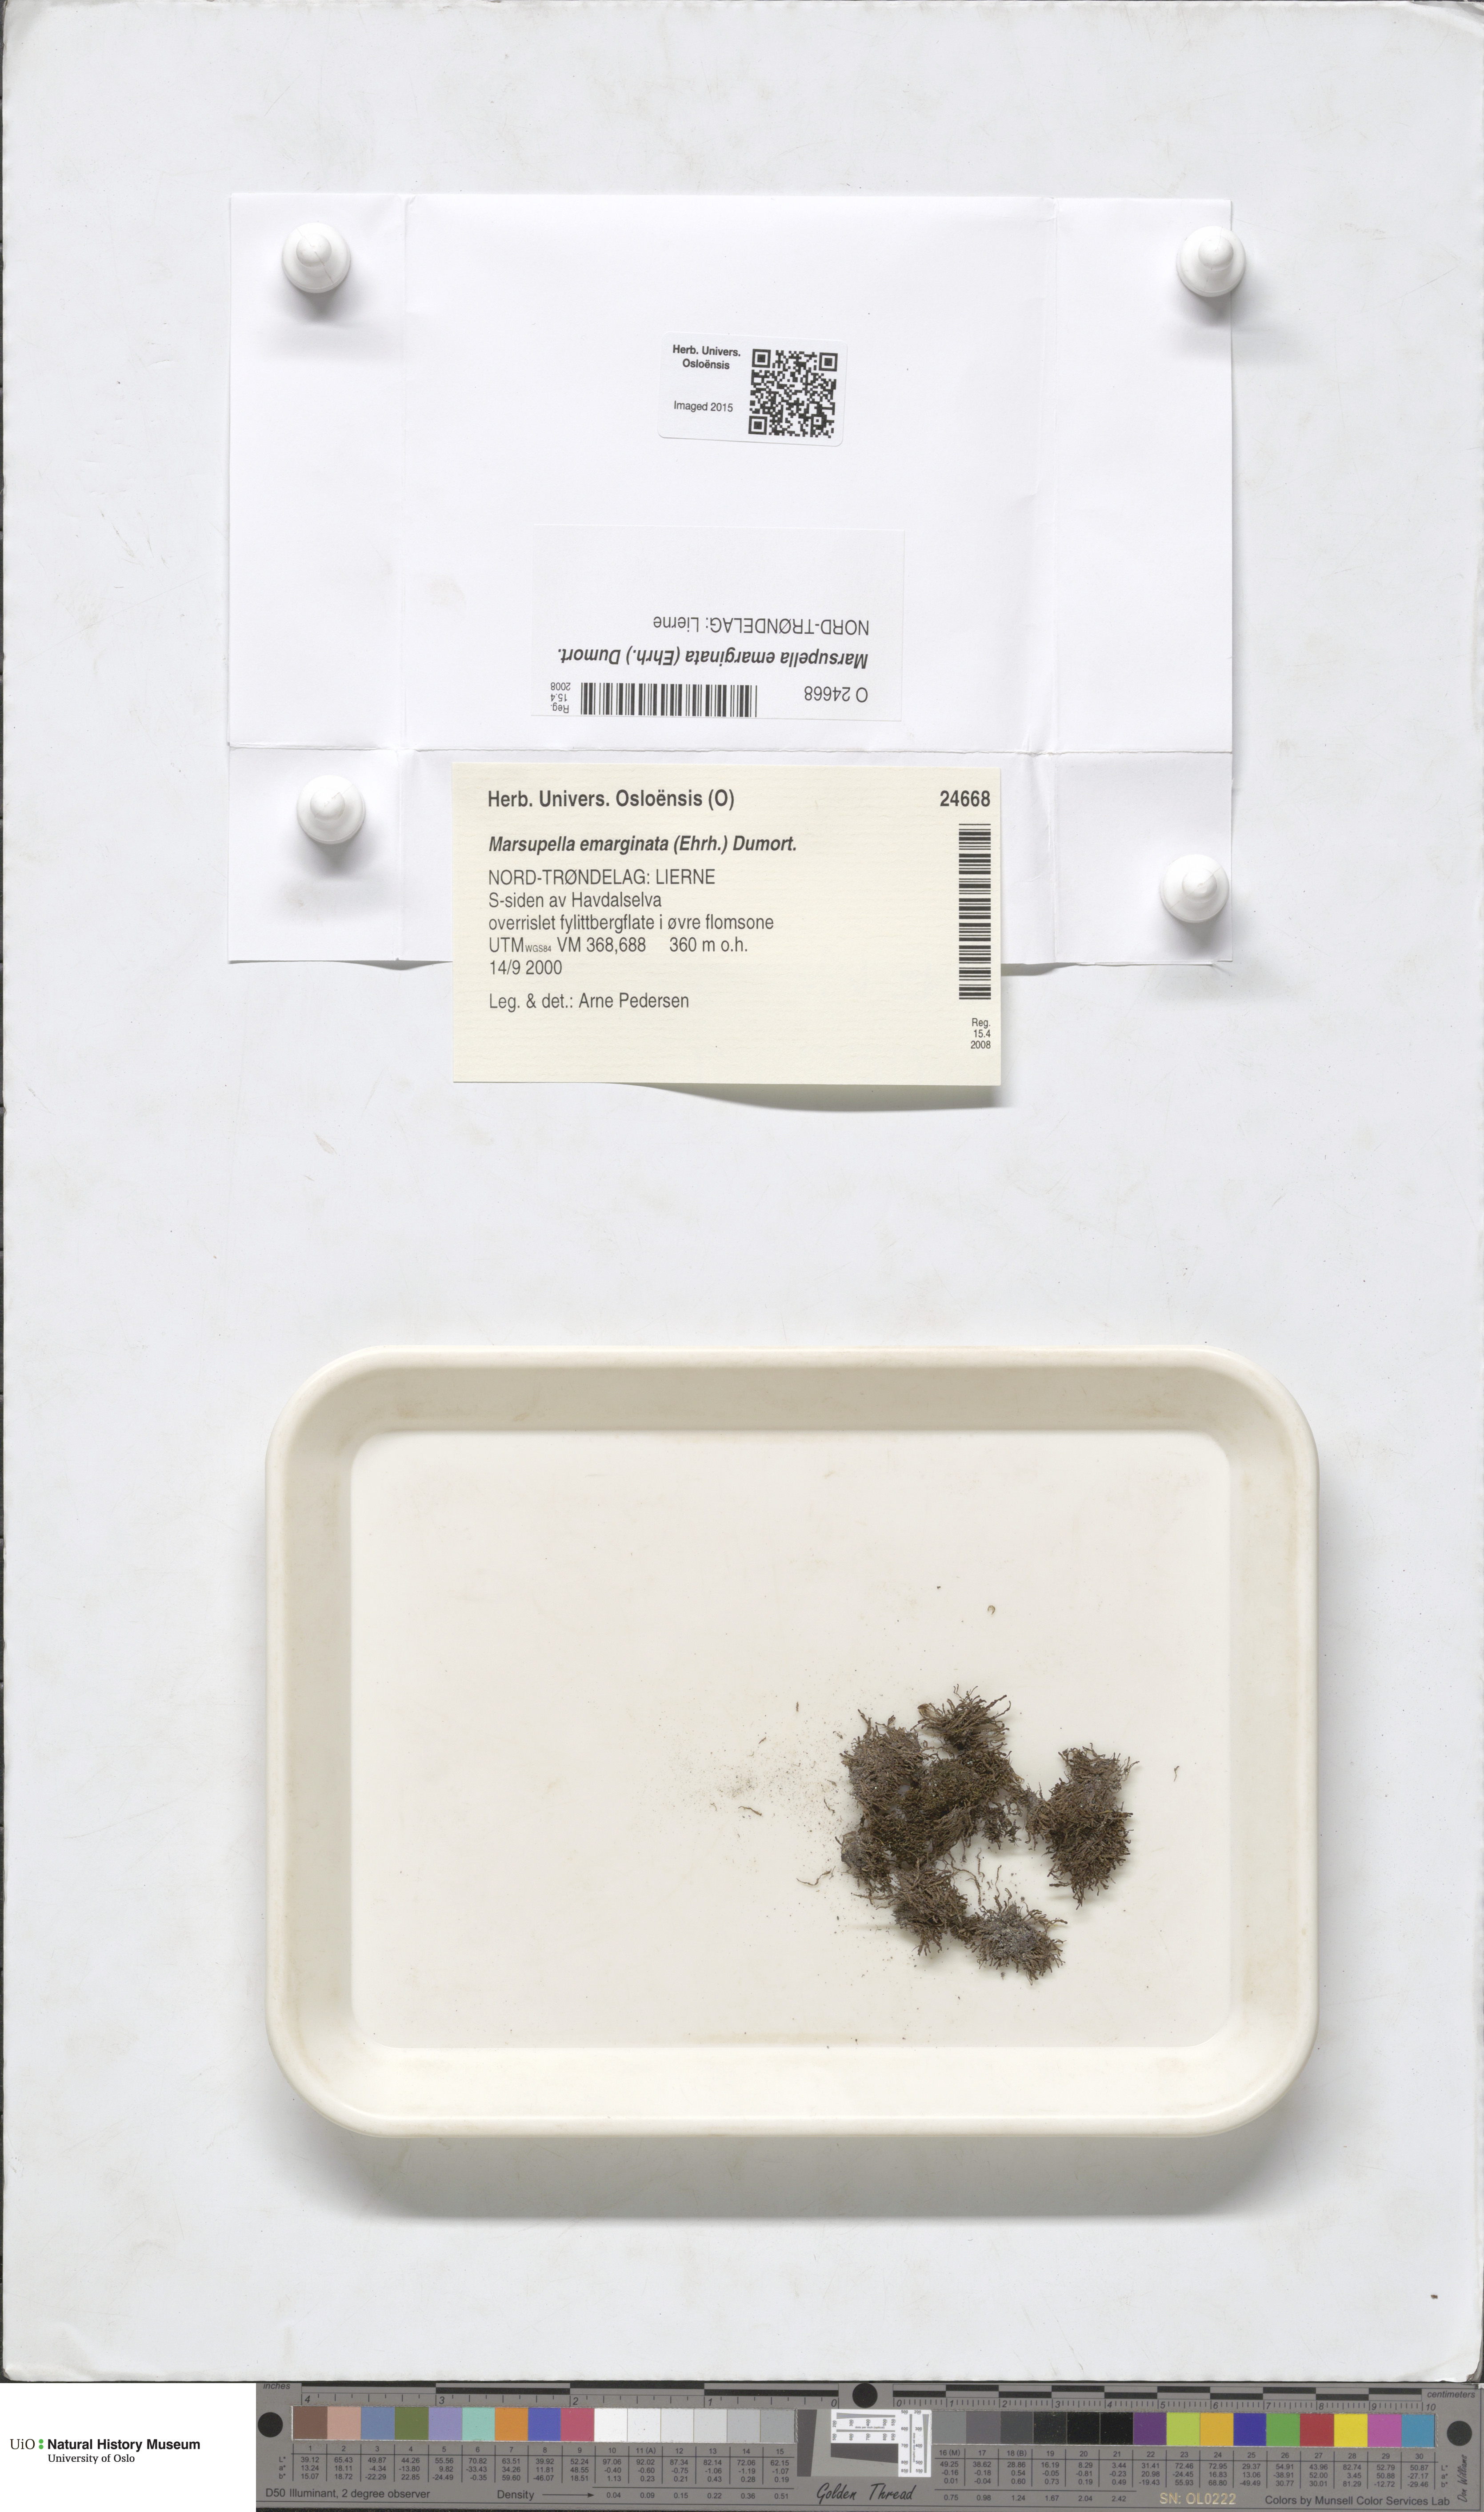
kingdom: Plantae
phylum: Marchantiophyta
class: Jungermanniopsida
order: Jungermanniales
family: Gymnomitriaceae
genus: Marsupella
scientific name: Marsupella emarginata
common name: Notched rustwort
